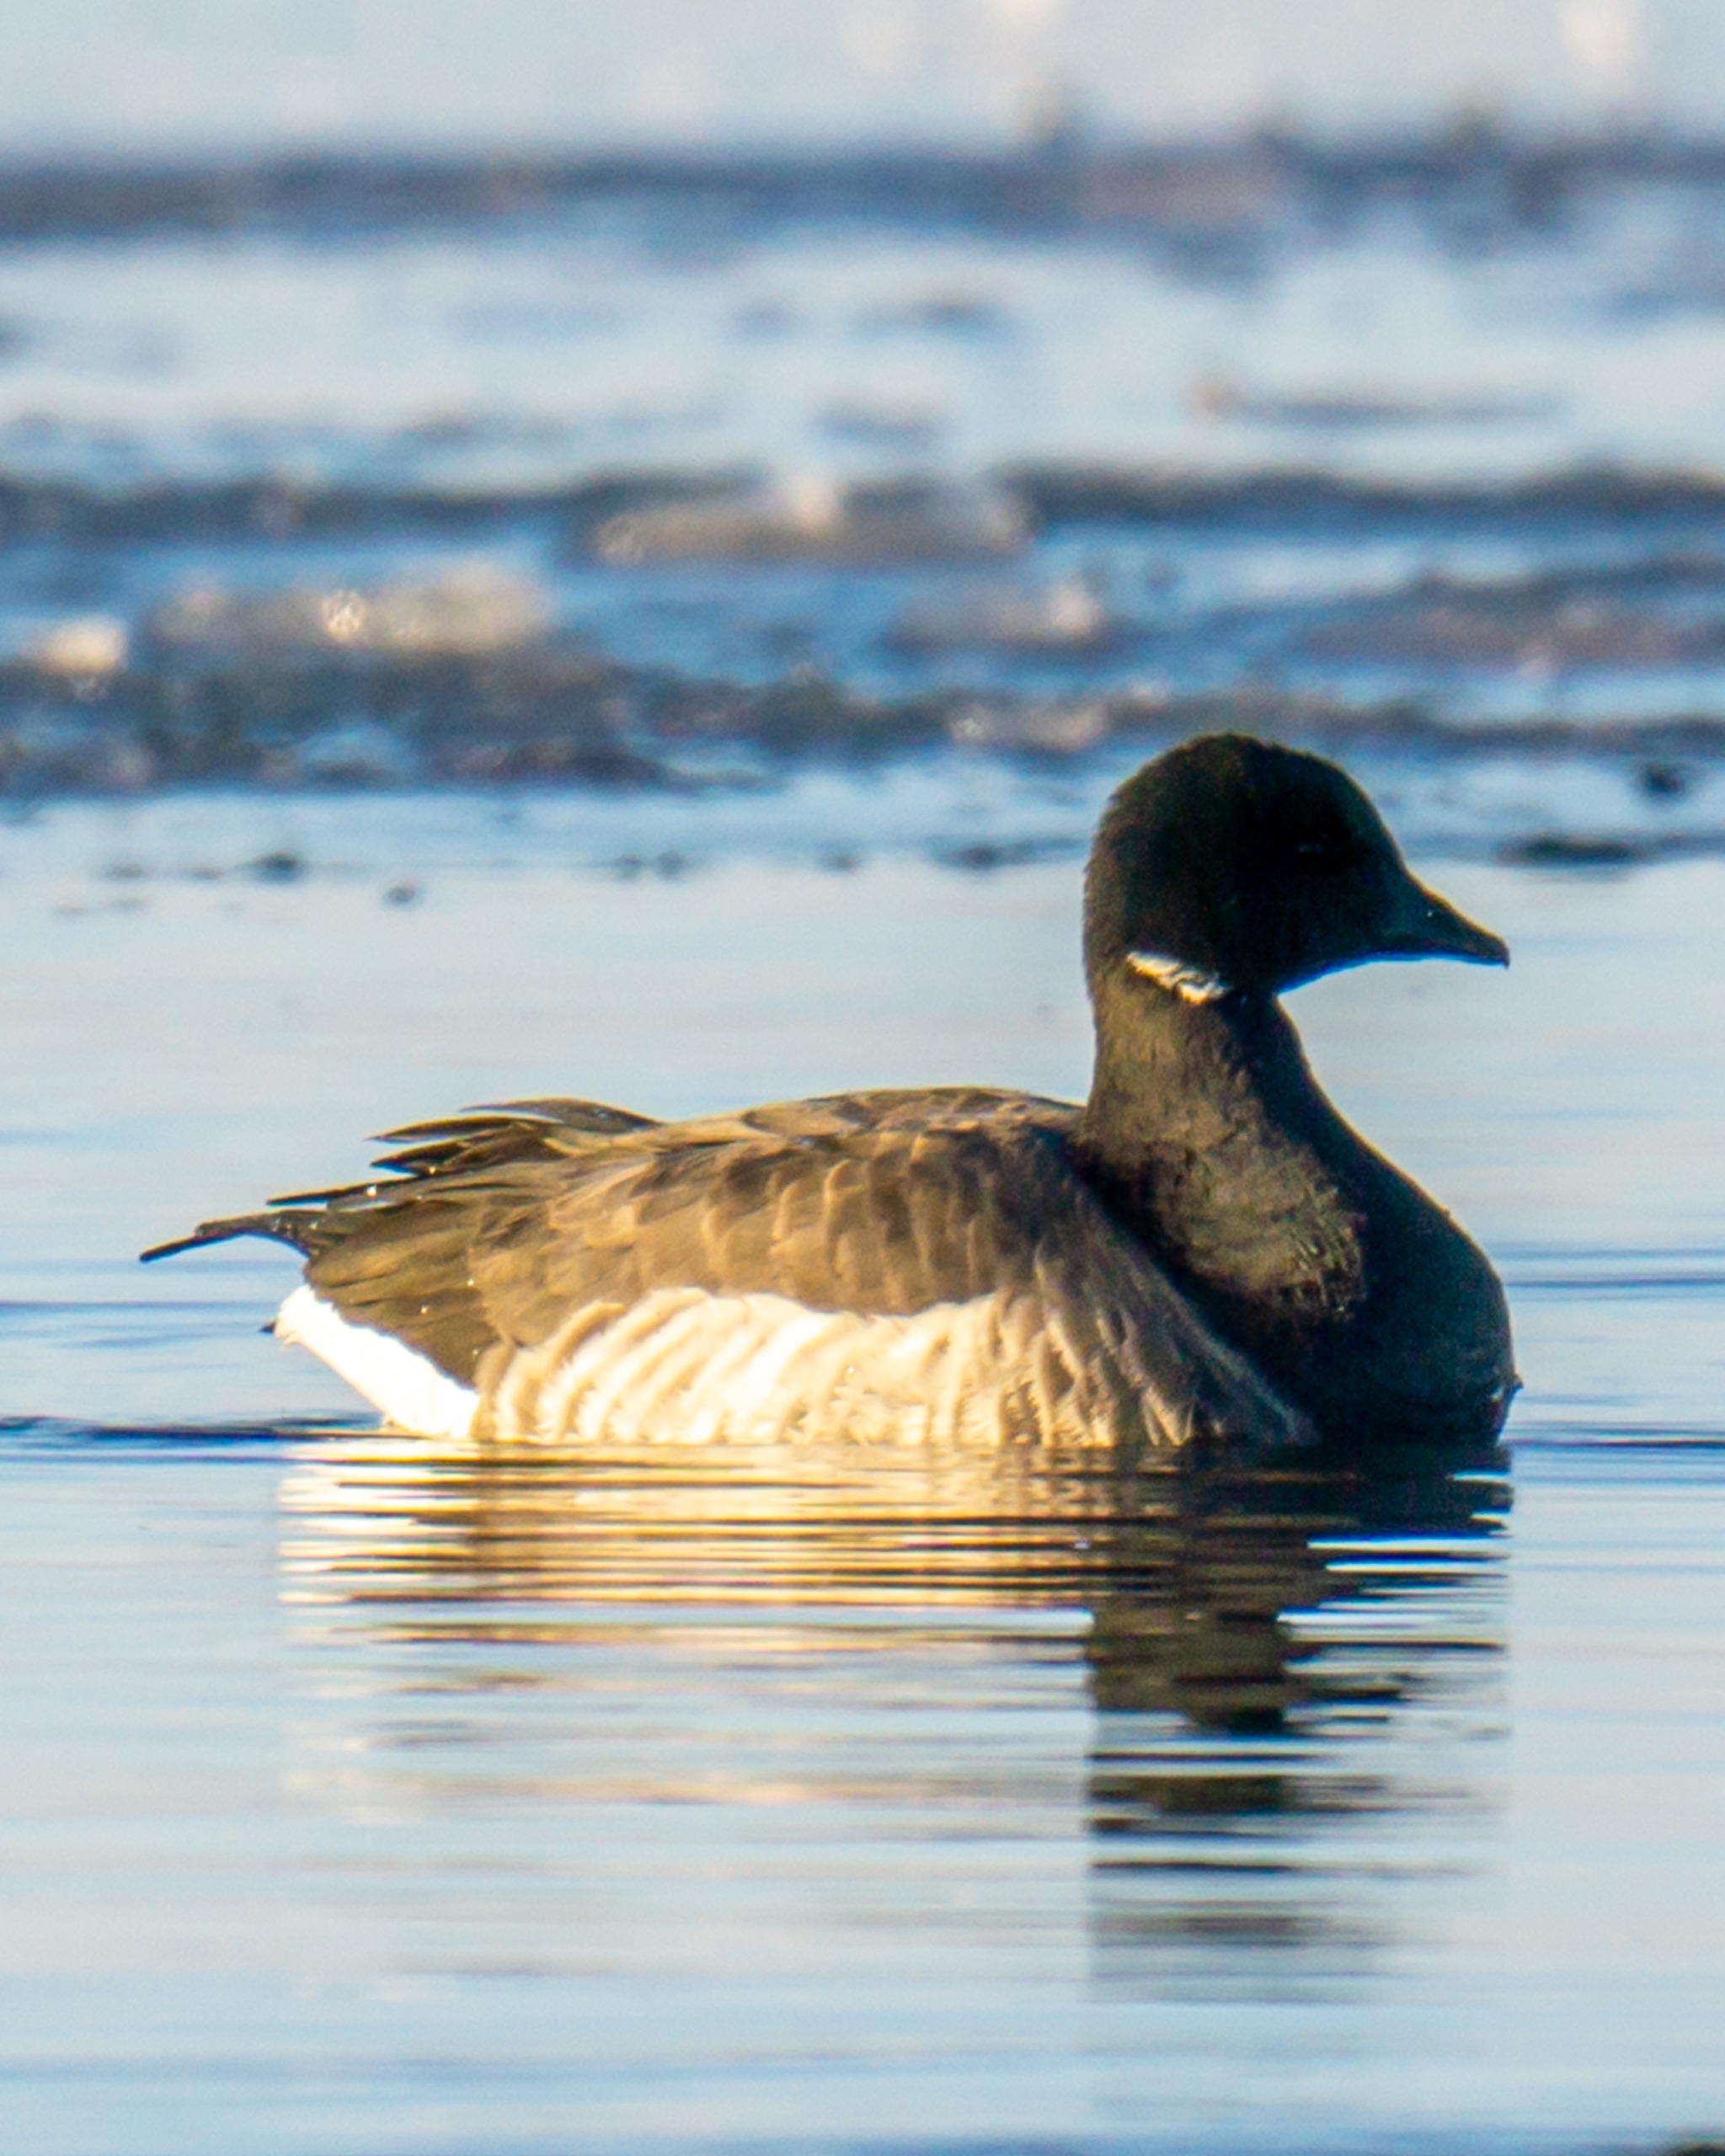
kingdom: Animalia
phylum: Chordata
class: Aves
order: Anseriformes
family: Anatidae
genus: Branta
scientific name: Branta bernicla
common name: Lysbuget knortegås
